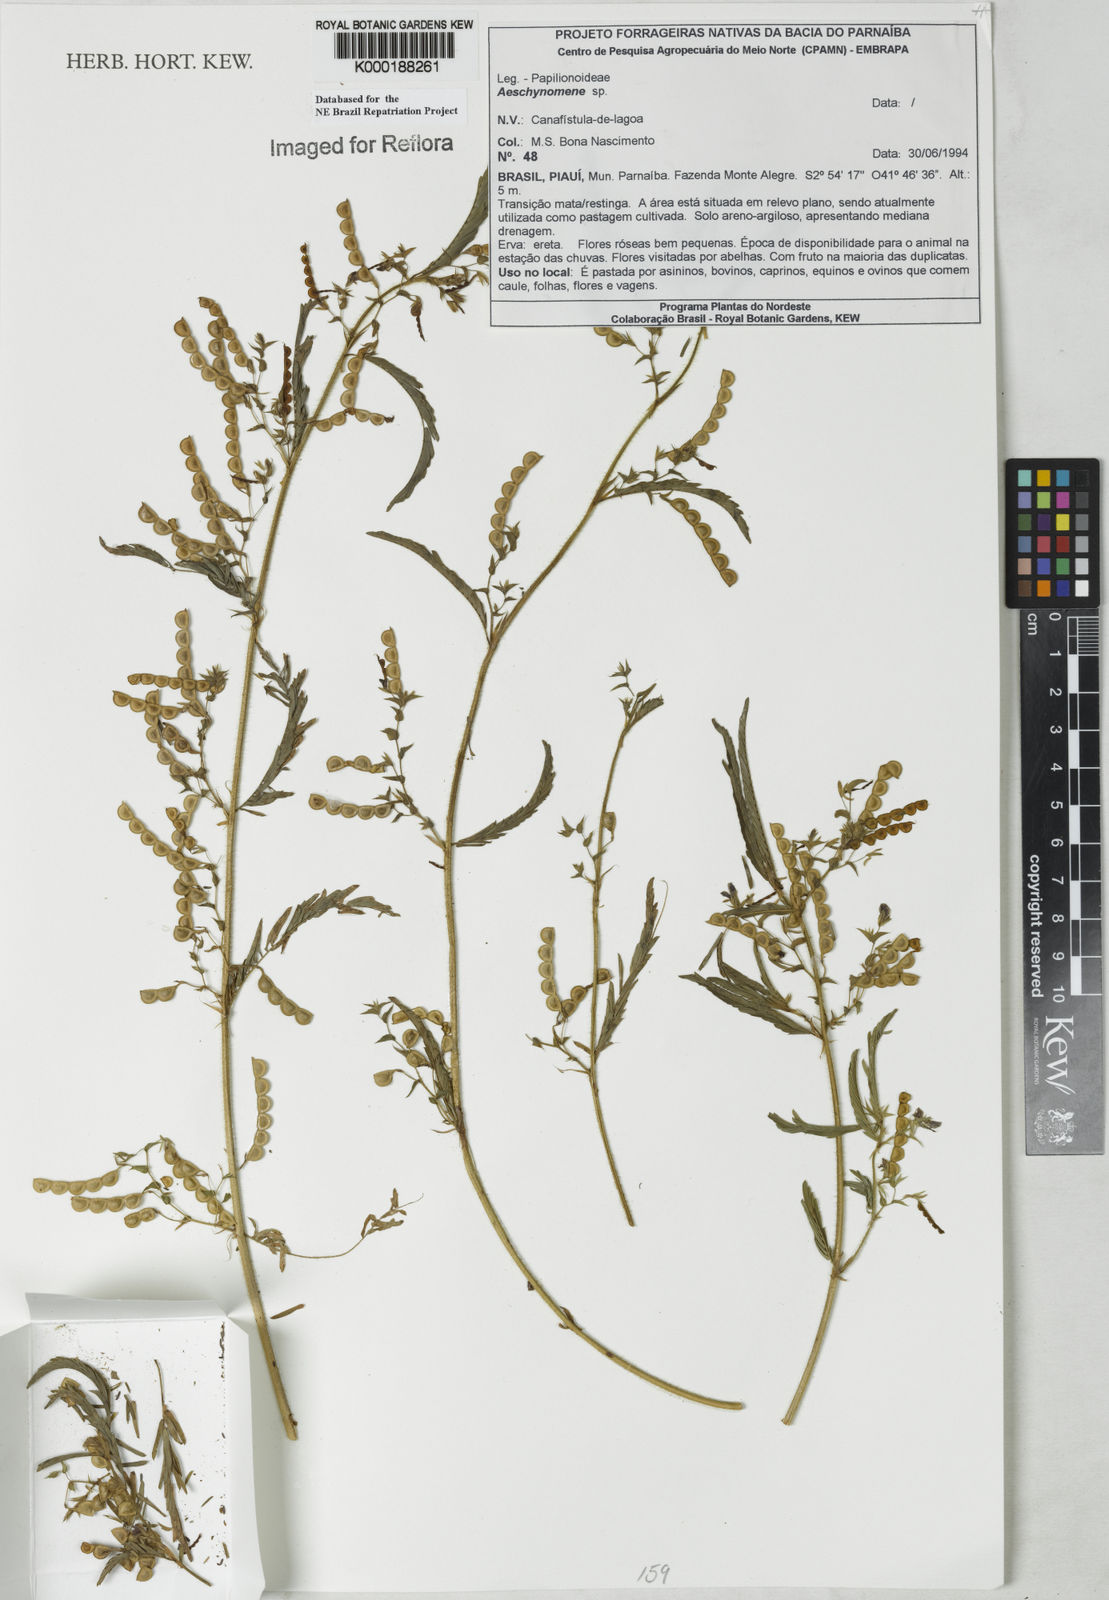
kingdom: Plantae
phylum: Tracheophyta
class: Magnoliopsida
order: Fabales
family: Fabaceae
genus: Aeschynomene
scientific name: Aeschynomene
